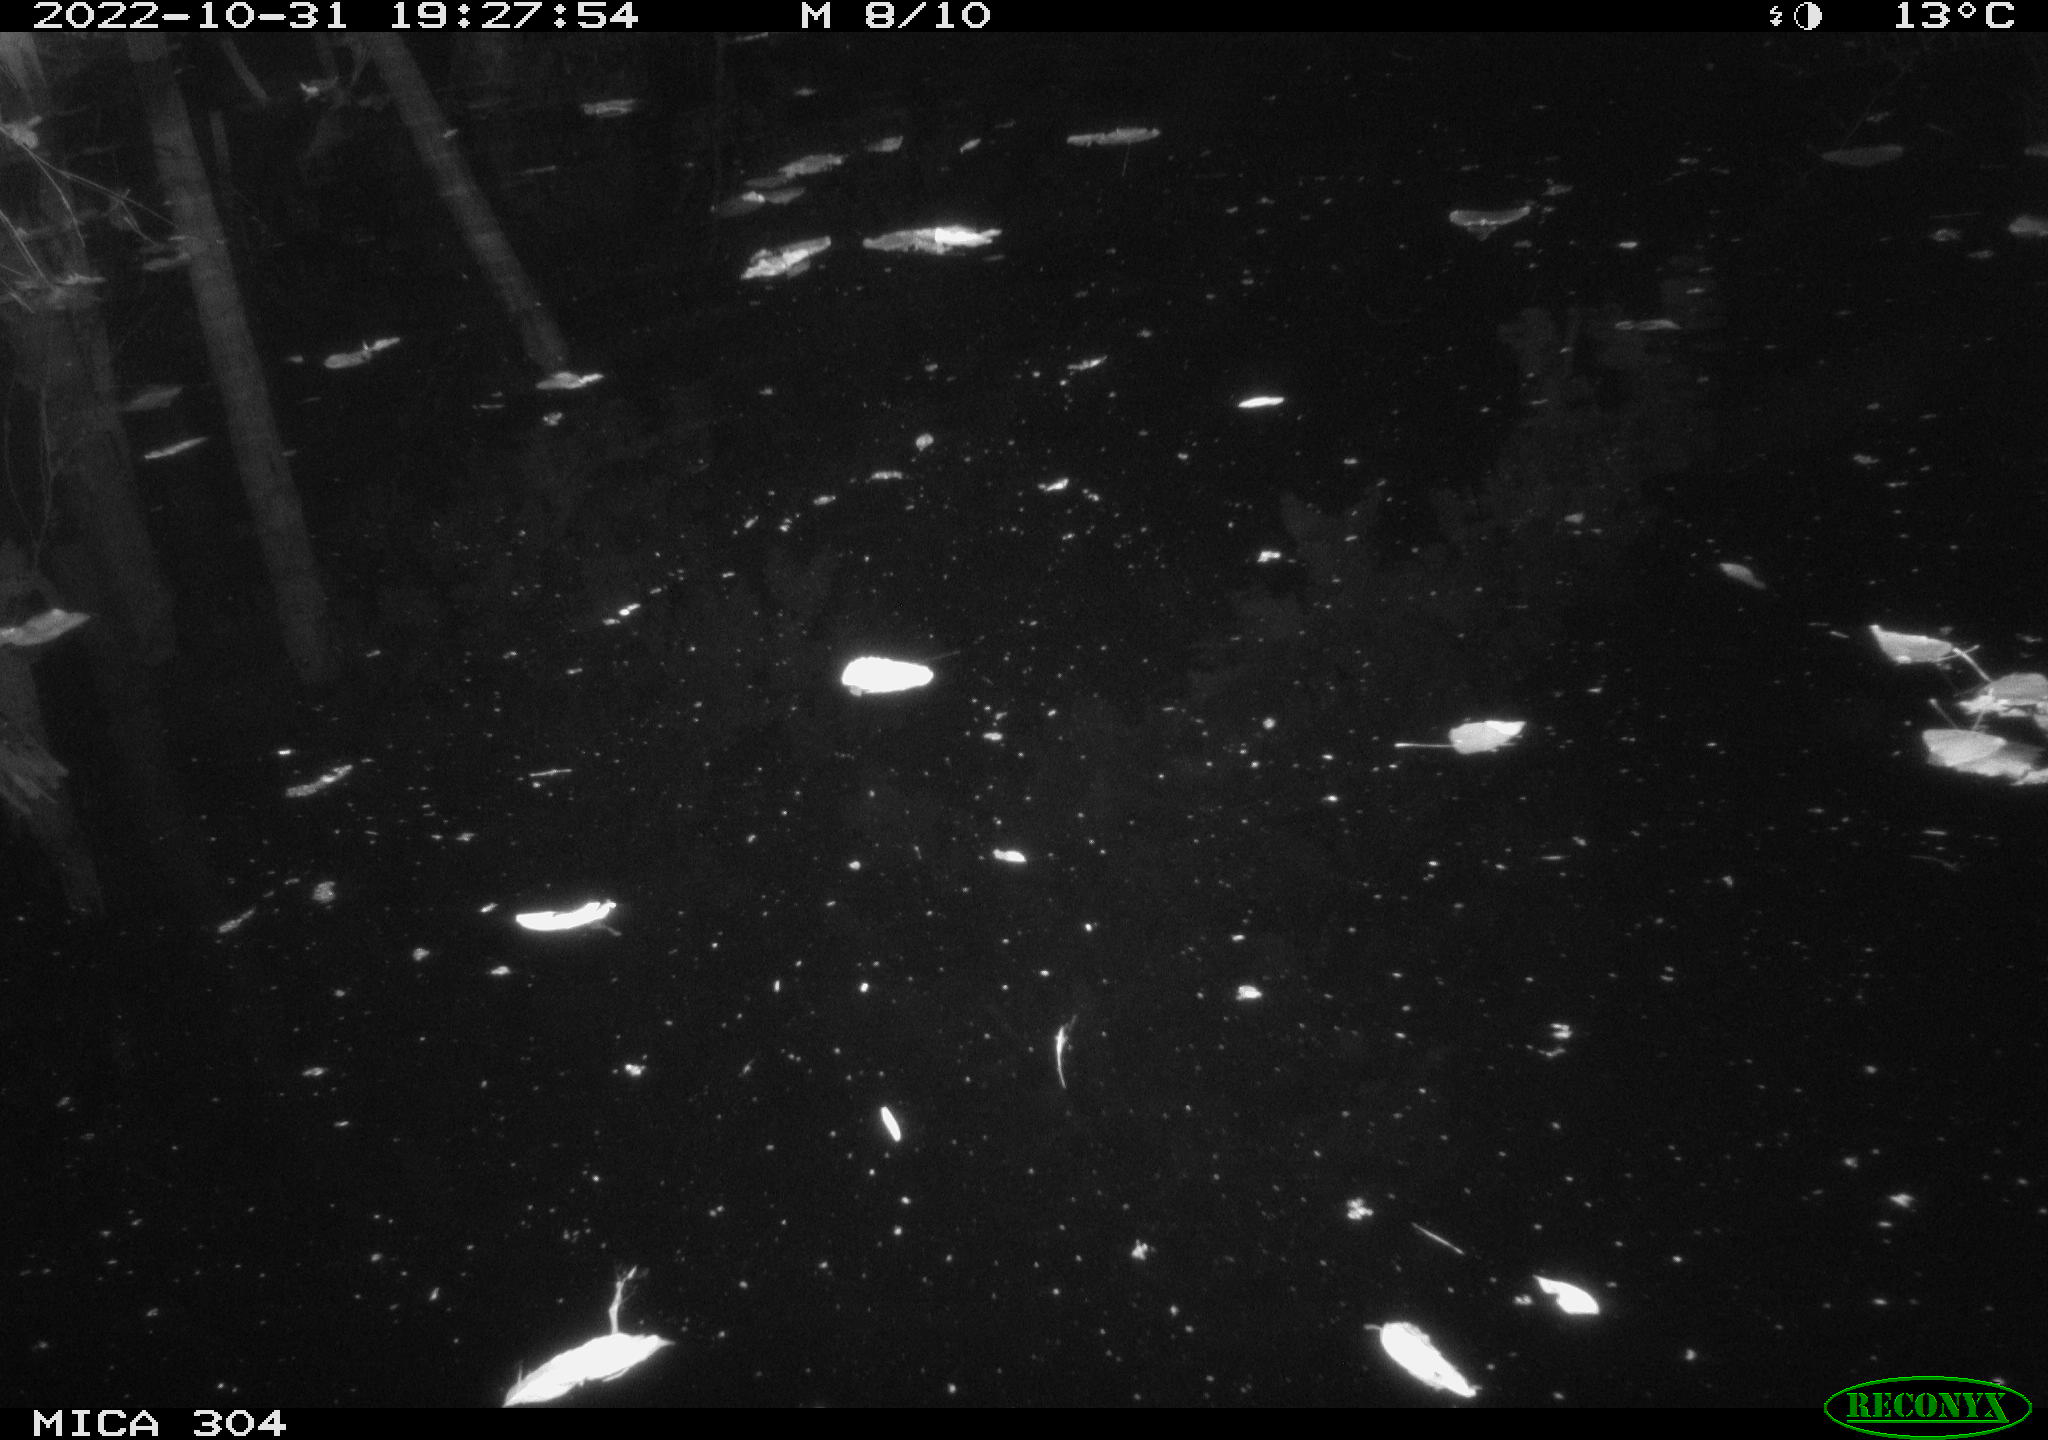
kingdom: Animalia
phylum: Chordata
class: Mammalia
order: Rodentia
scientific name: Rodentia
